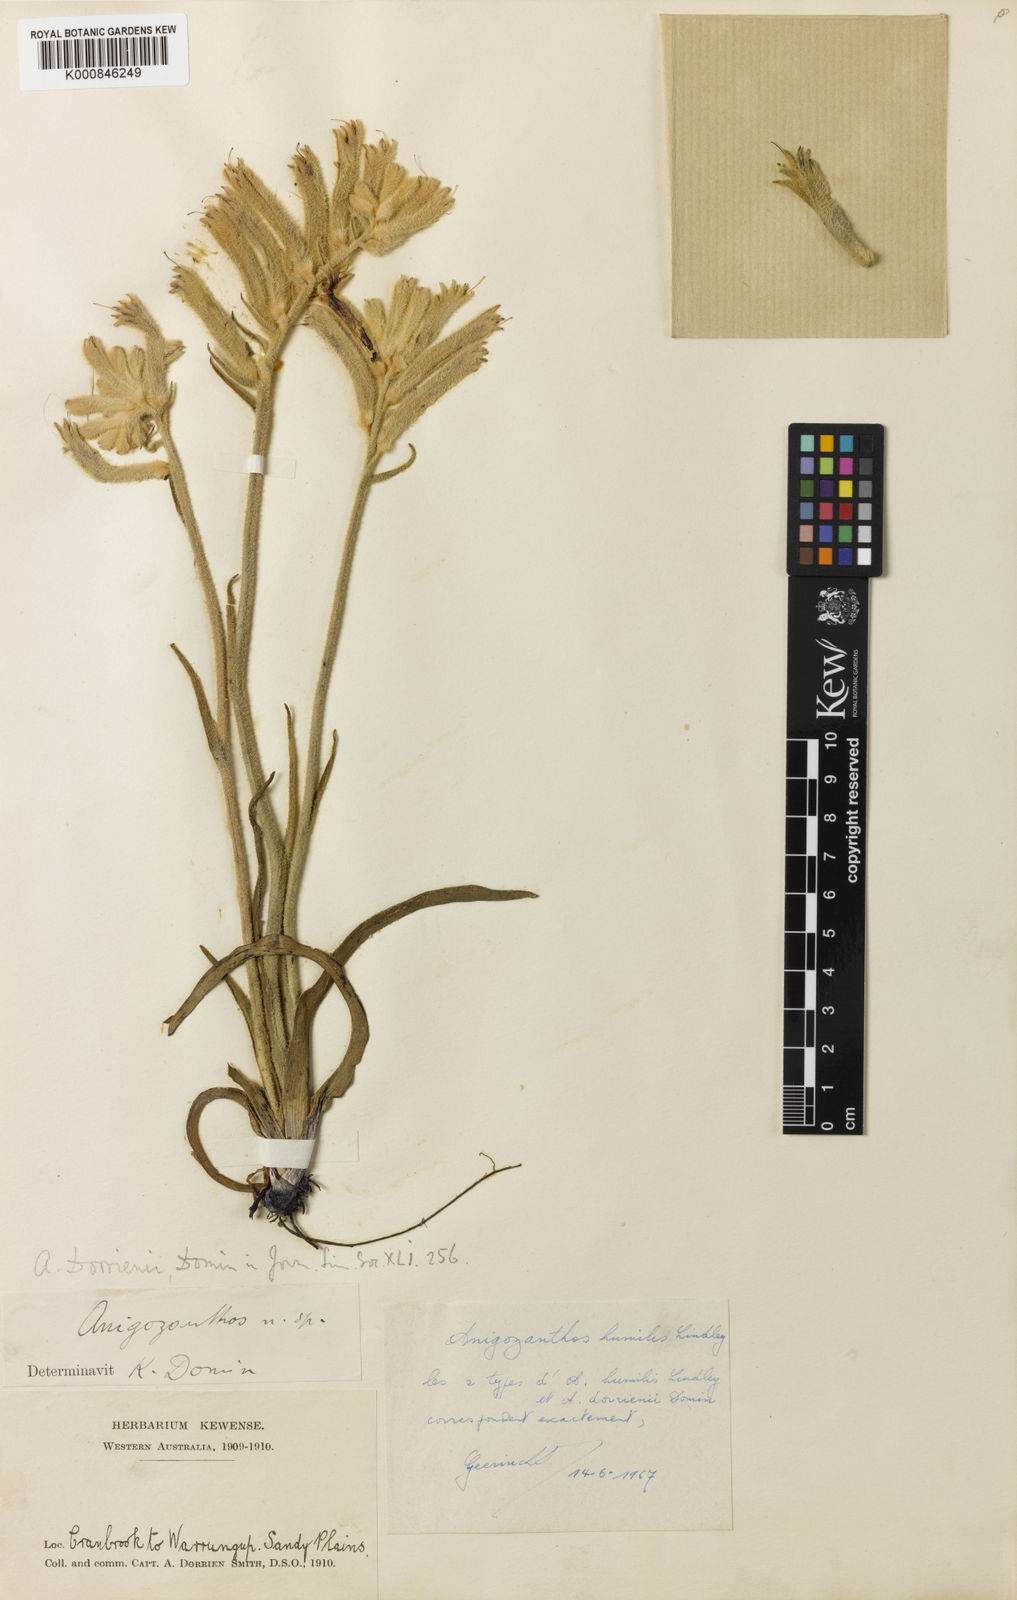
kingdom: Plantae
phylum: Tracheophyta
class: Liliopsida
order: Commelinales
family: Haemodoraceae
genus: Anigozanthos
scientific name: Anigozanthos humilis
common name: Cat's-paw
